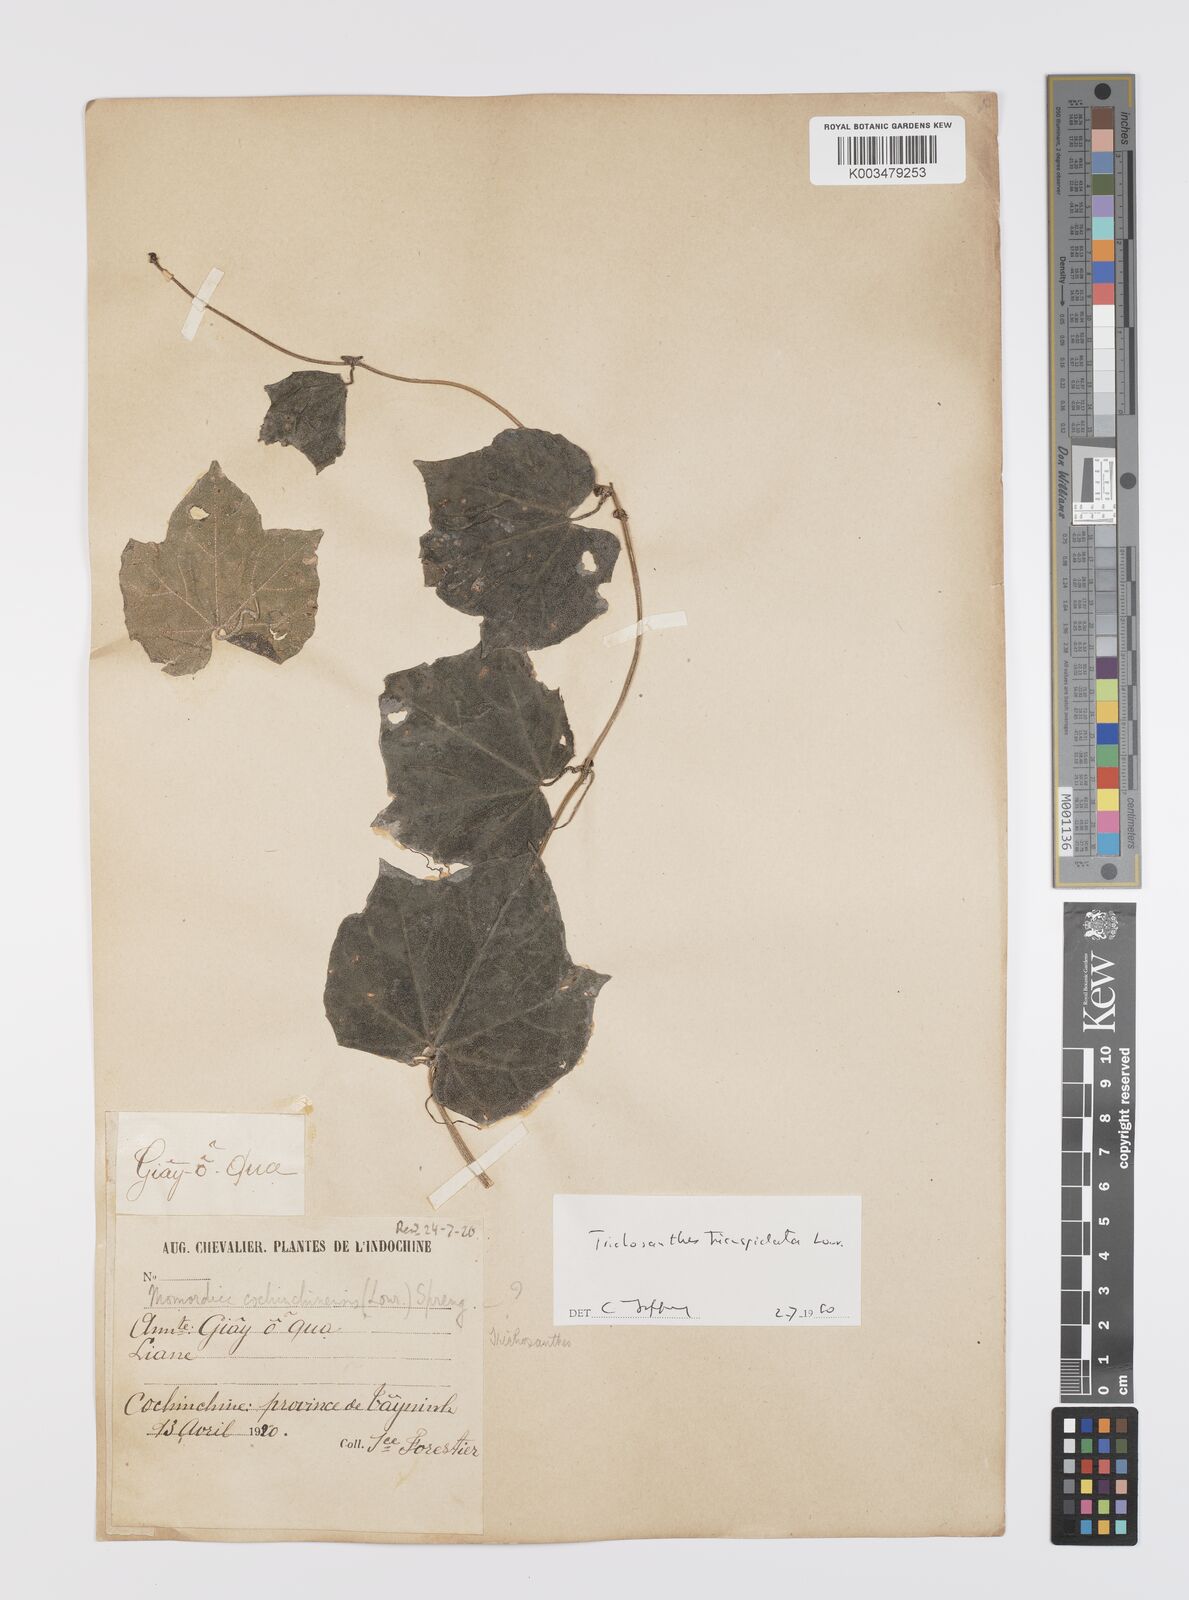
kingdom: Plantae
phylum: Tracheophyta
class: Magnoliopsida
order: Cucurbitales
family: Cucurbitaceae
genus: Trichosanthes
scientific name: Trichosanthes tricuspidata
